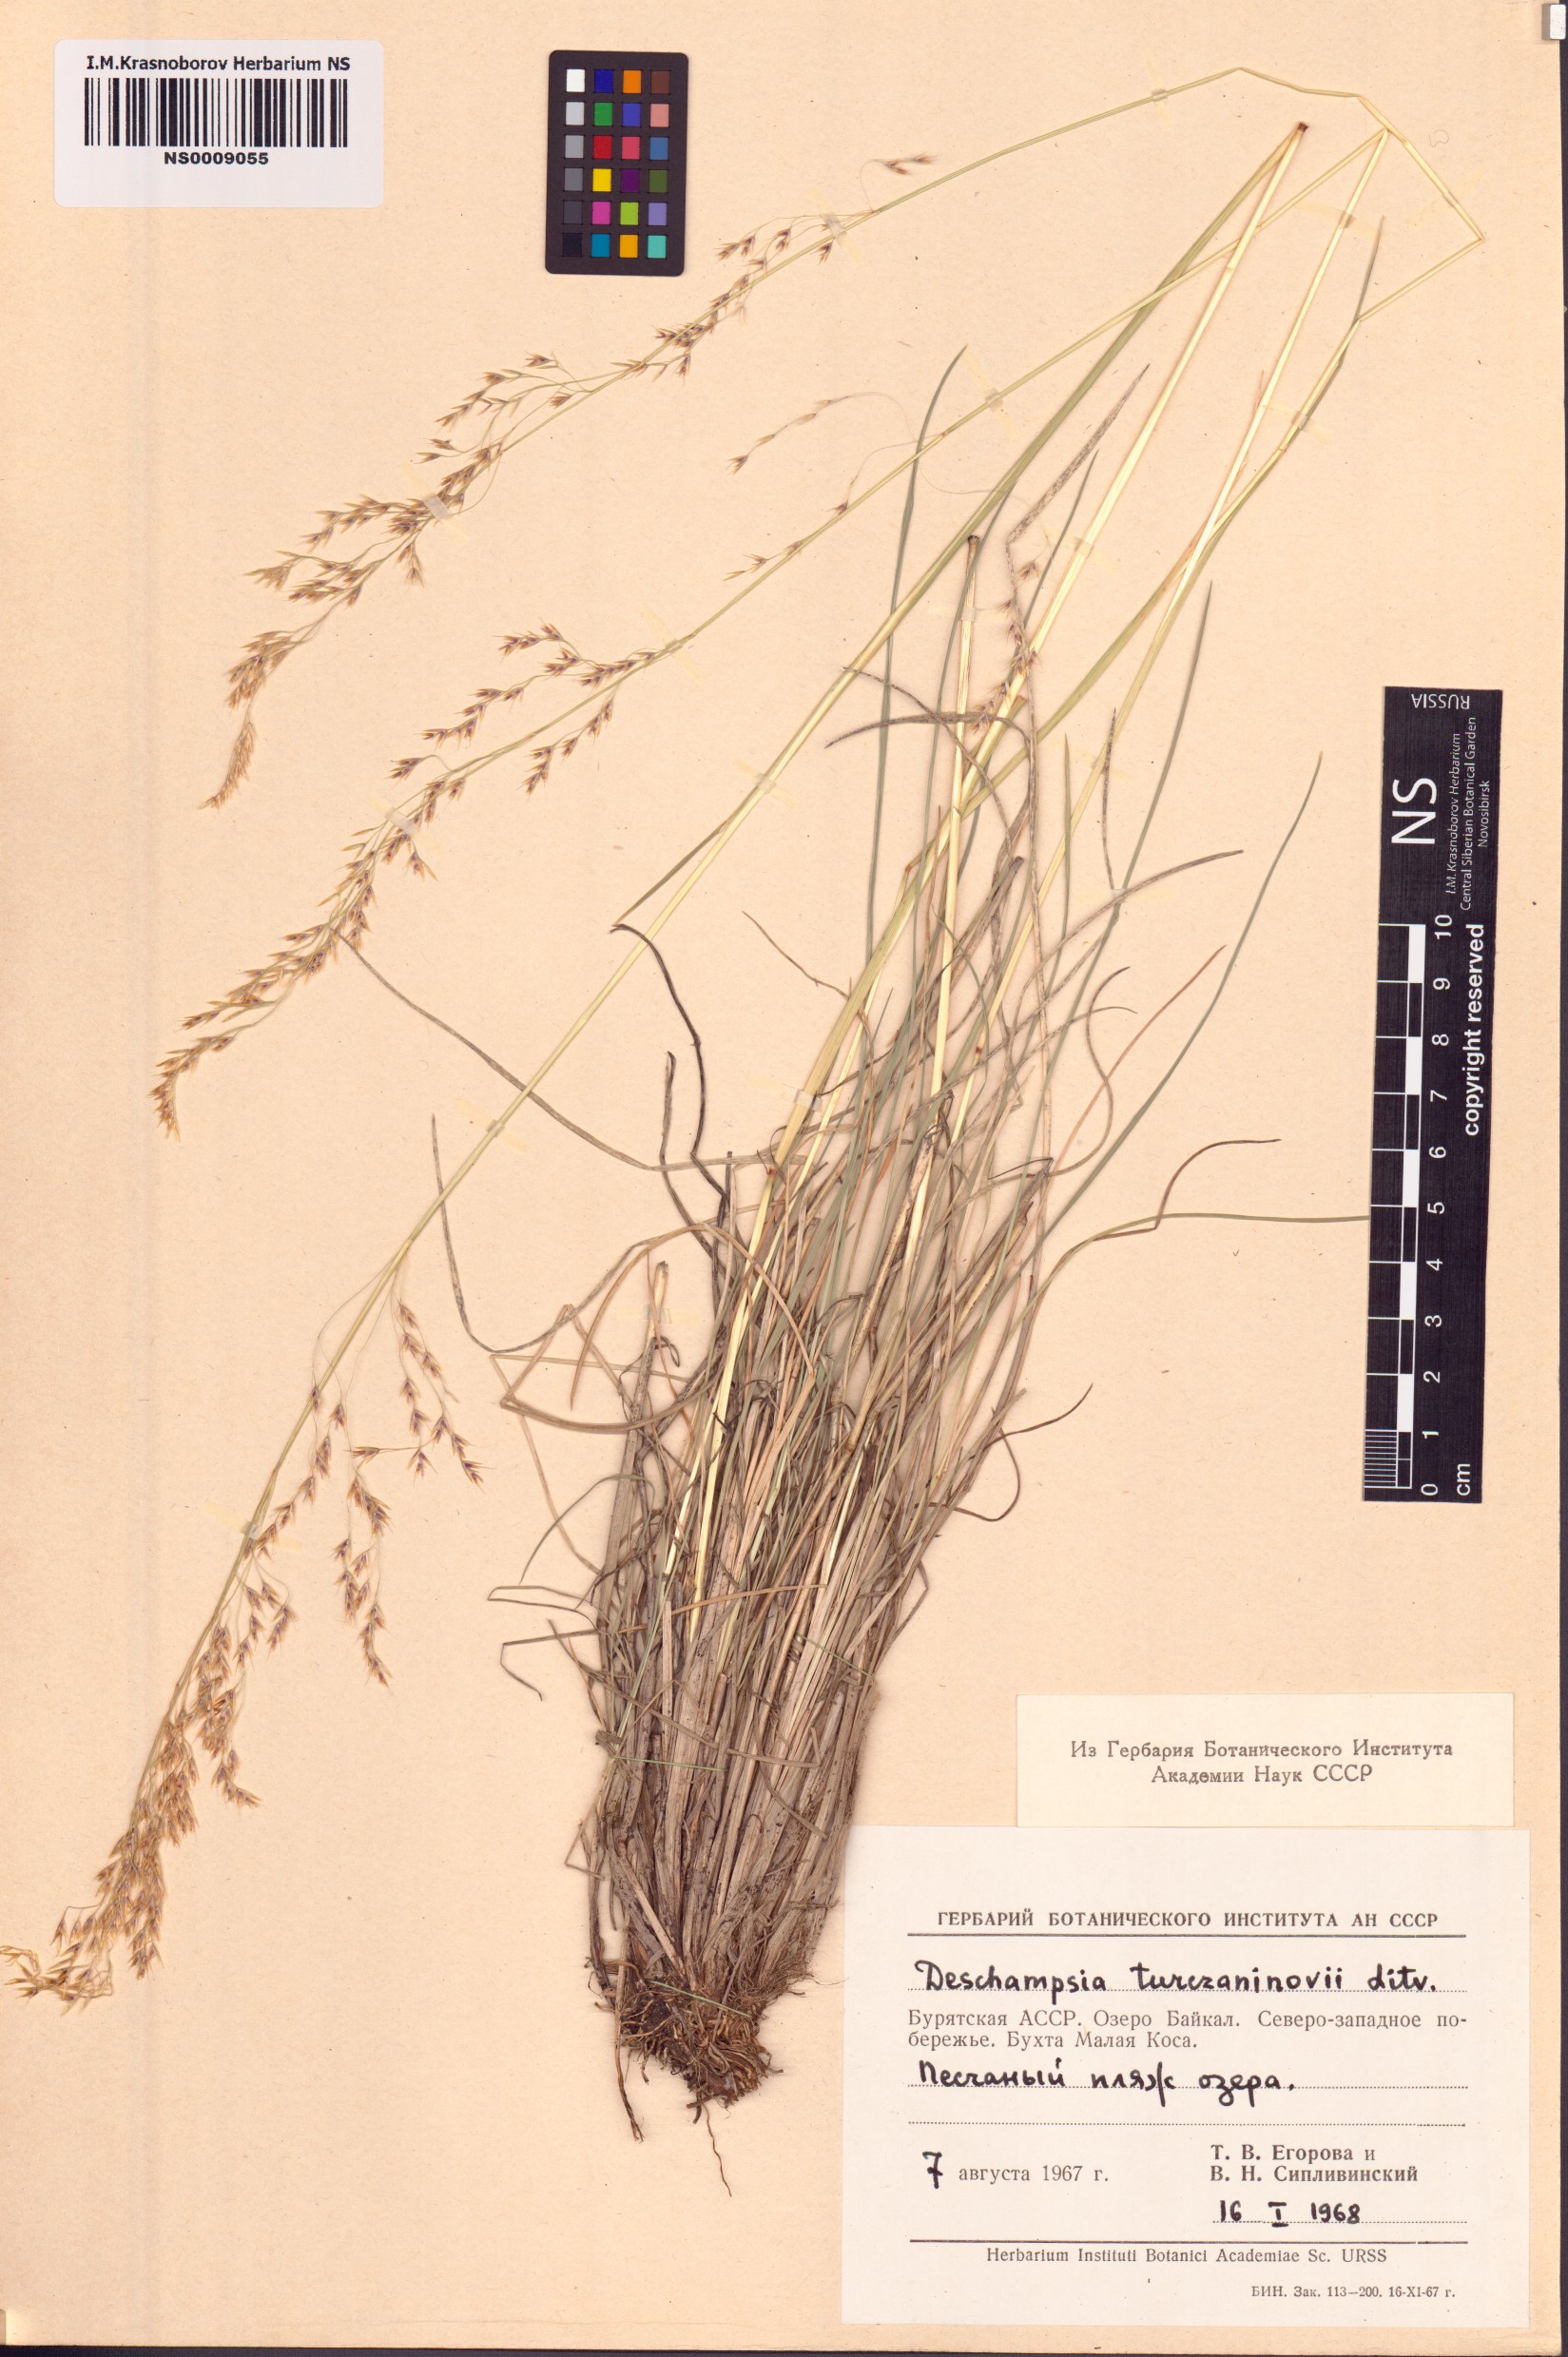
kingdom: Plantae
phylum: Tracheophyta
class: Liliopsida
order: Poales
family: Poaceae
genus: Deschampsia
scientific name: Deschampsia cespitosa
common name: Tufted hair-grass
